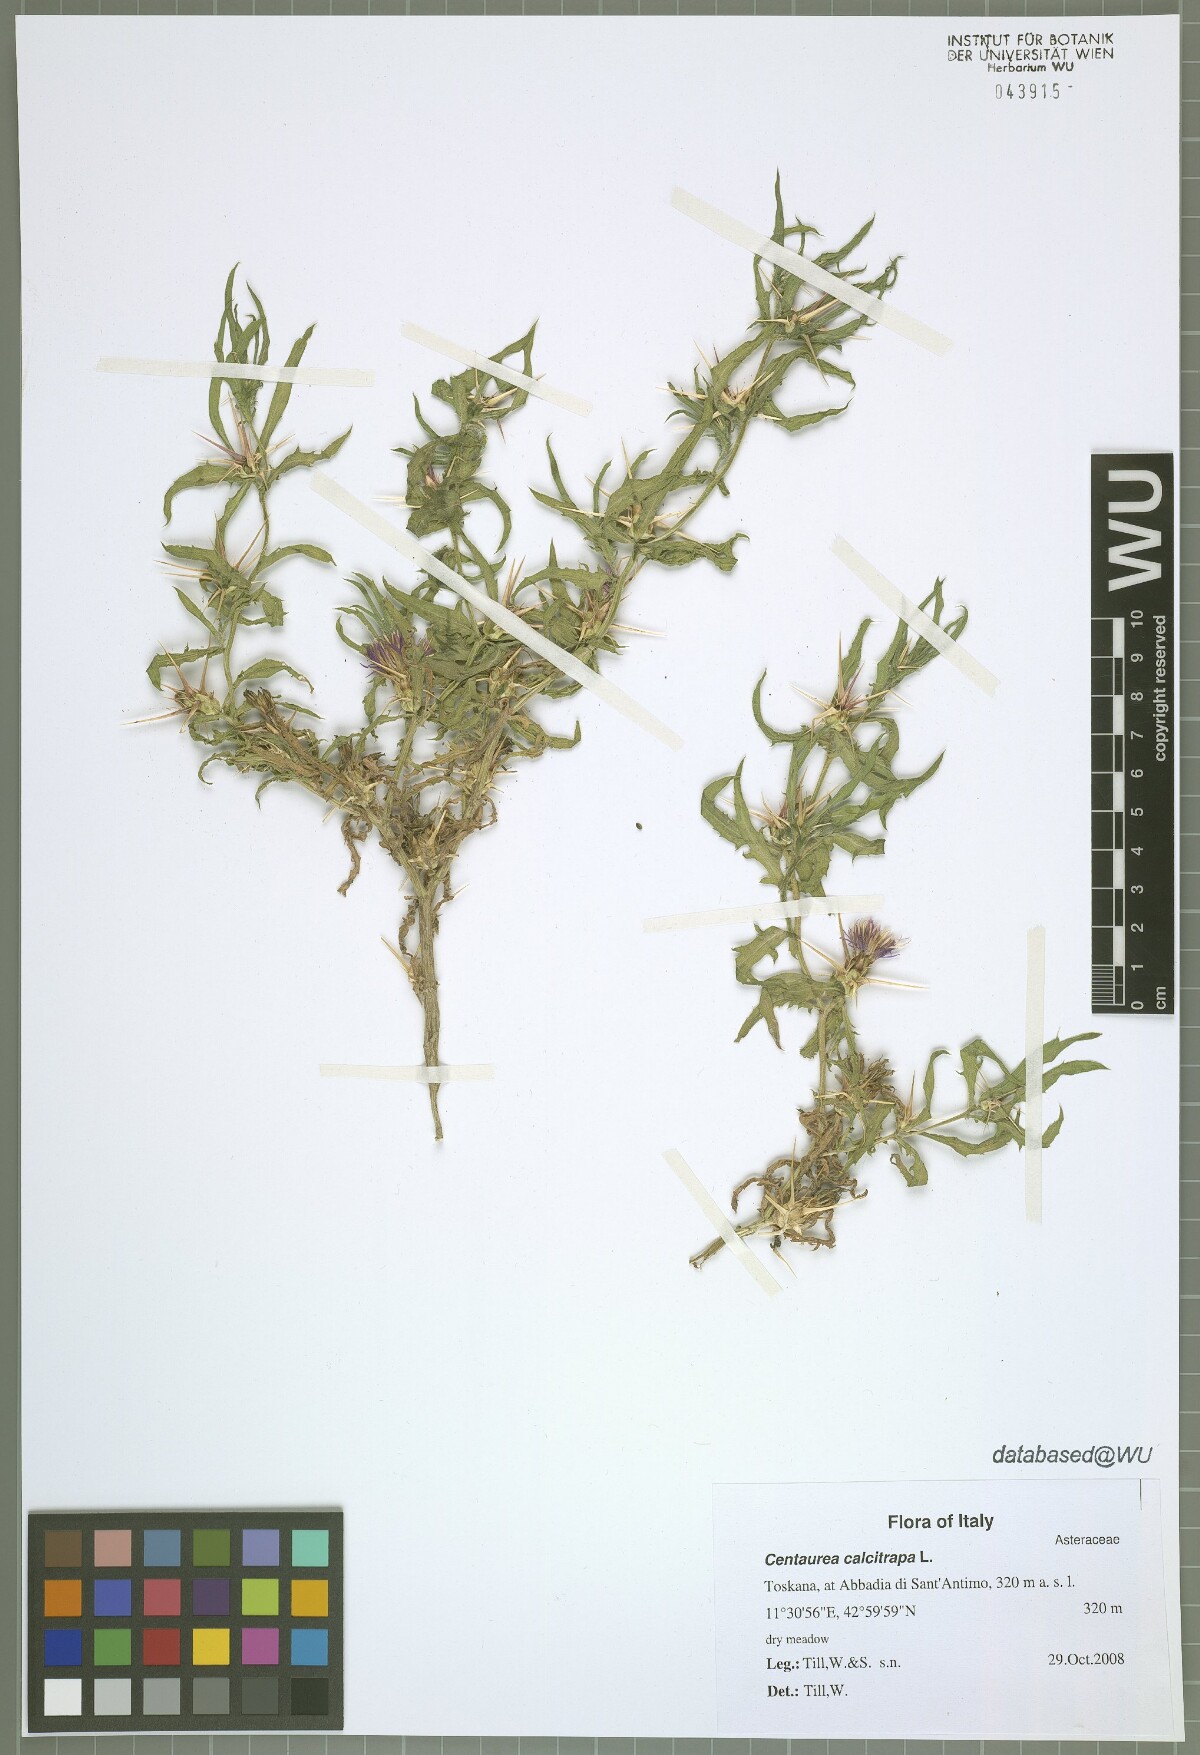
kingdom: Plantae
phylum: Tracheophyta
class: Magnoliopsida
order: Asterales
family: Asteraceae
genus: Centaurea
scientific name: Centaurea calcitrapa
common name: Red star-thistle
